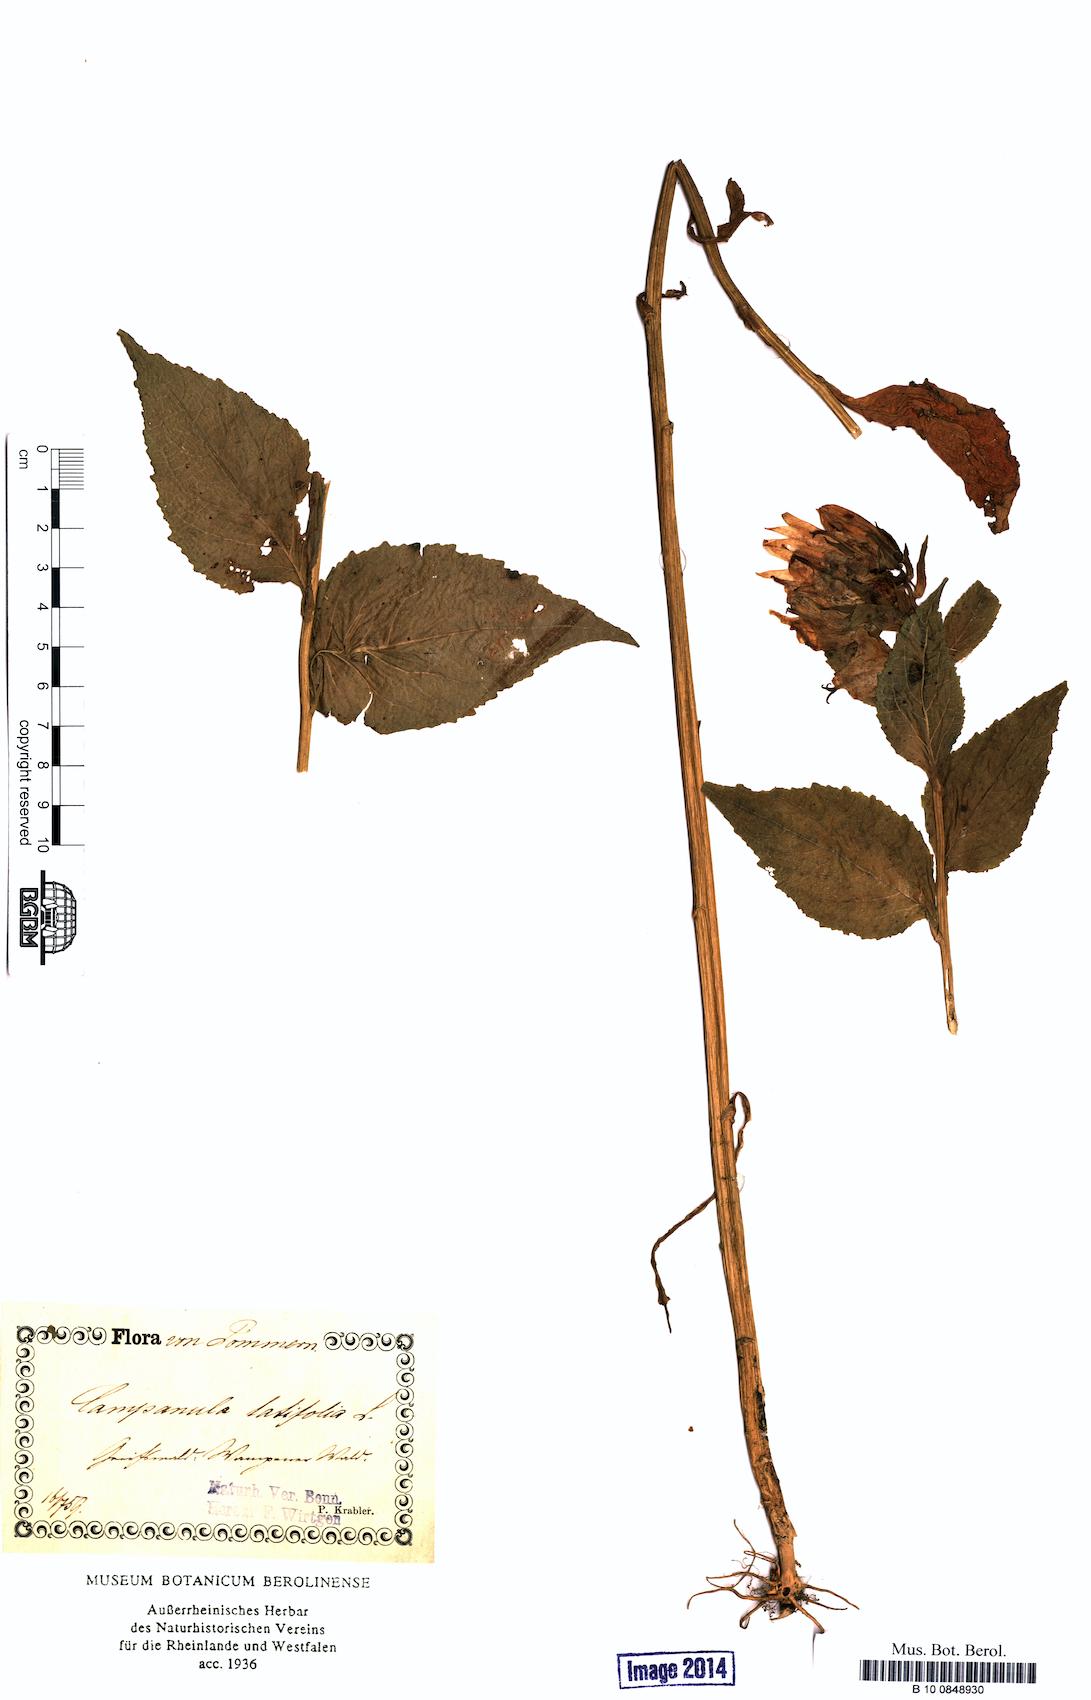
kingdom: Plantae
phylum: Tracheophyta
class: Magnoliopsida
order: Asterales
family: Campanulaceae
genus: Campanula
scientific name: Campanula latifolia
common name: Giant bellflower
